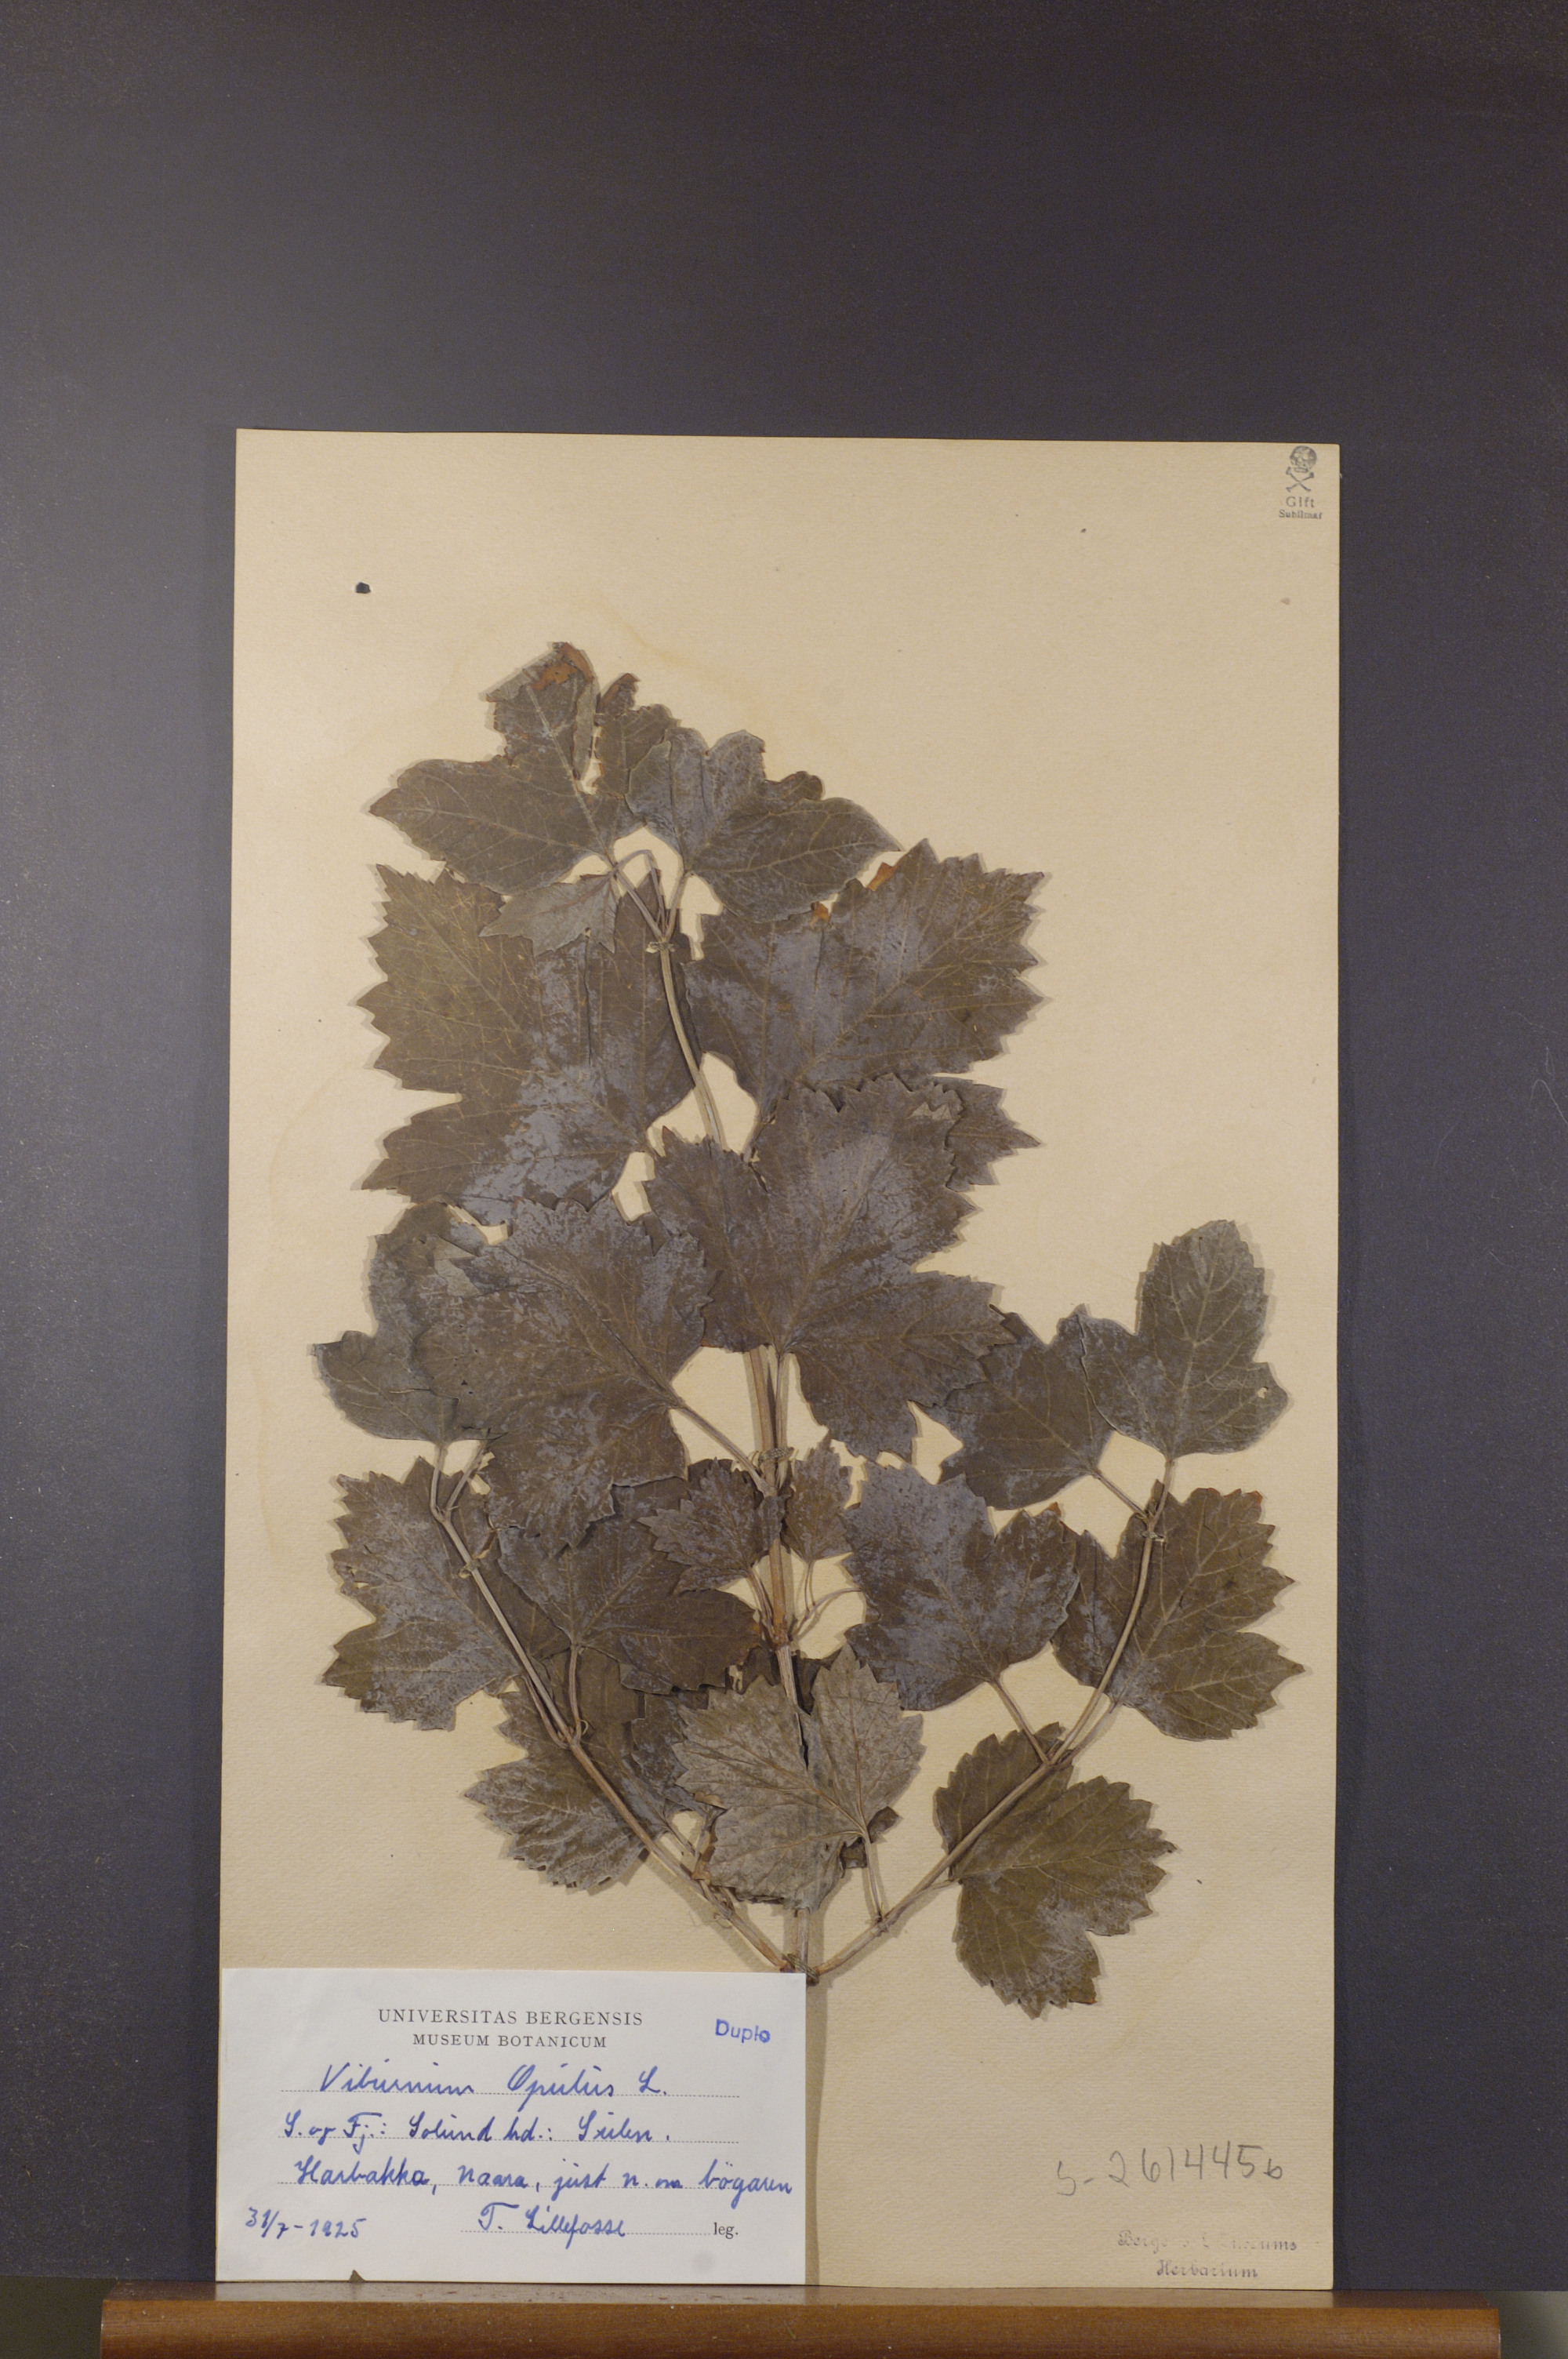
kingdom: Plantae
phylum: Tracheophyta
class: Magnoliopsida
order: Dipsacales
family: Viburnaceae
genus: Viburnum
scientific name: Viburnum opulus
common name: Guelder-rose
